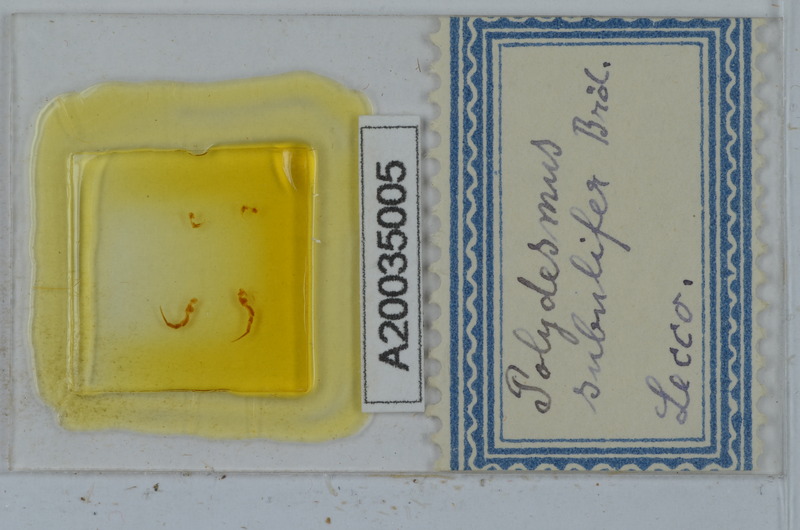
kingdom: Animalia
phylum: Arthropoda
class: Diplopoda
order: Polydesmida
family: Polydesmidae
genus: Polydesmus
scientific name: Polydesmus subulifer
